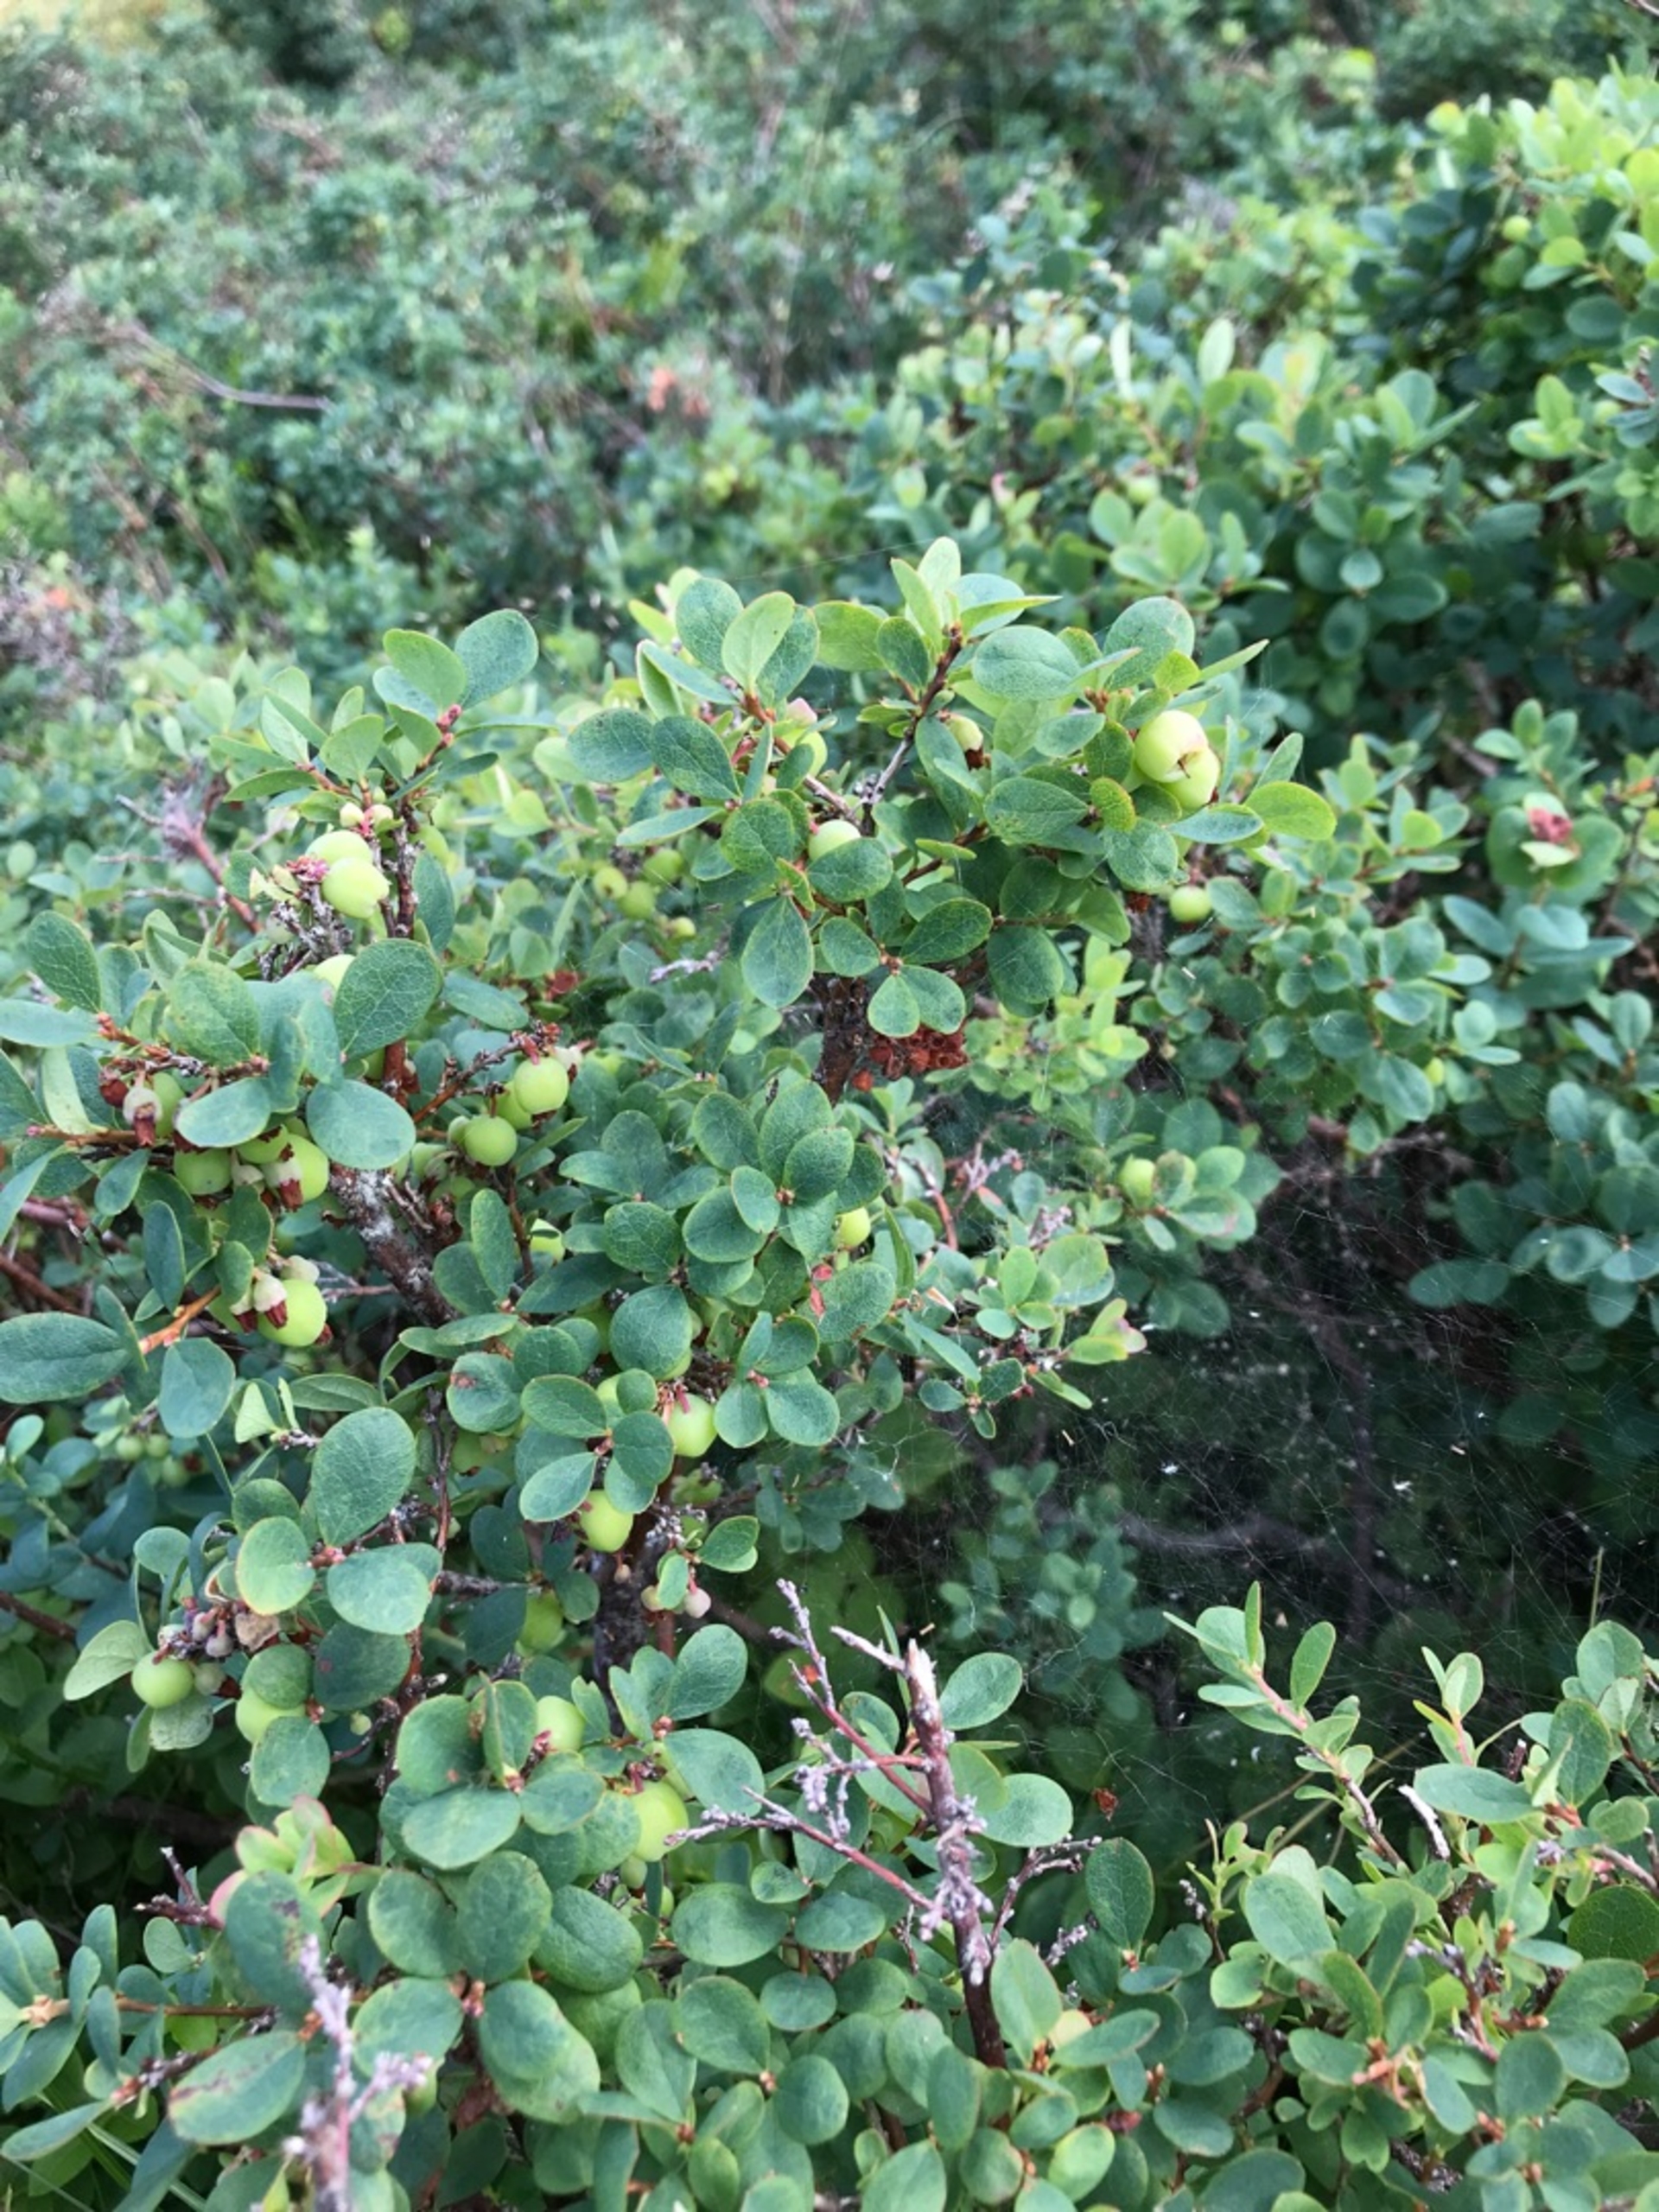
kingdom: Plantae
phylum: Tracheophyta
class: Magnoliopsida
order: Ericales
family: Ericaceae
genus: Vaccinium
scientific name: Vaccinium uliginosum
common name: Mose-bølle
